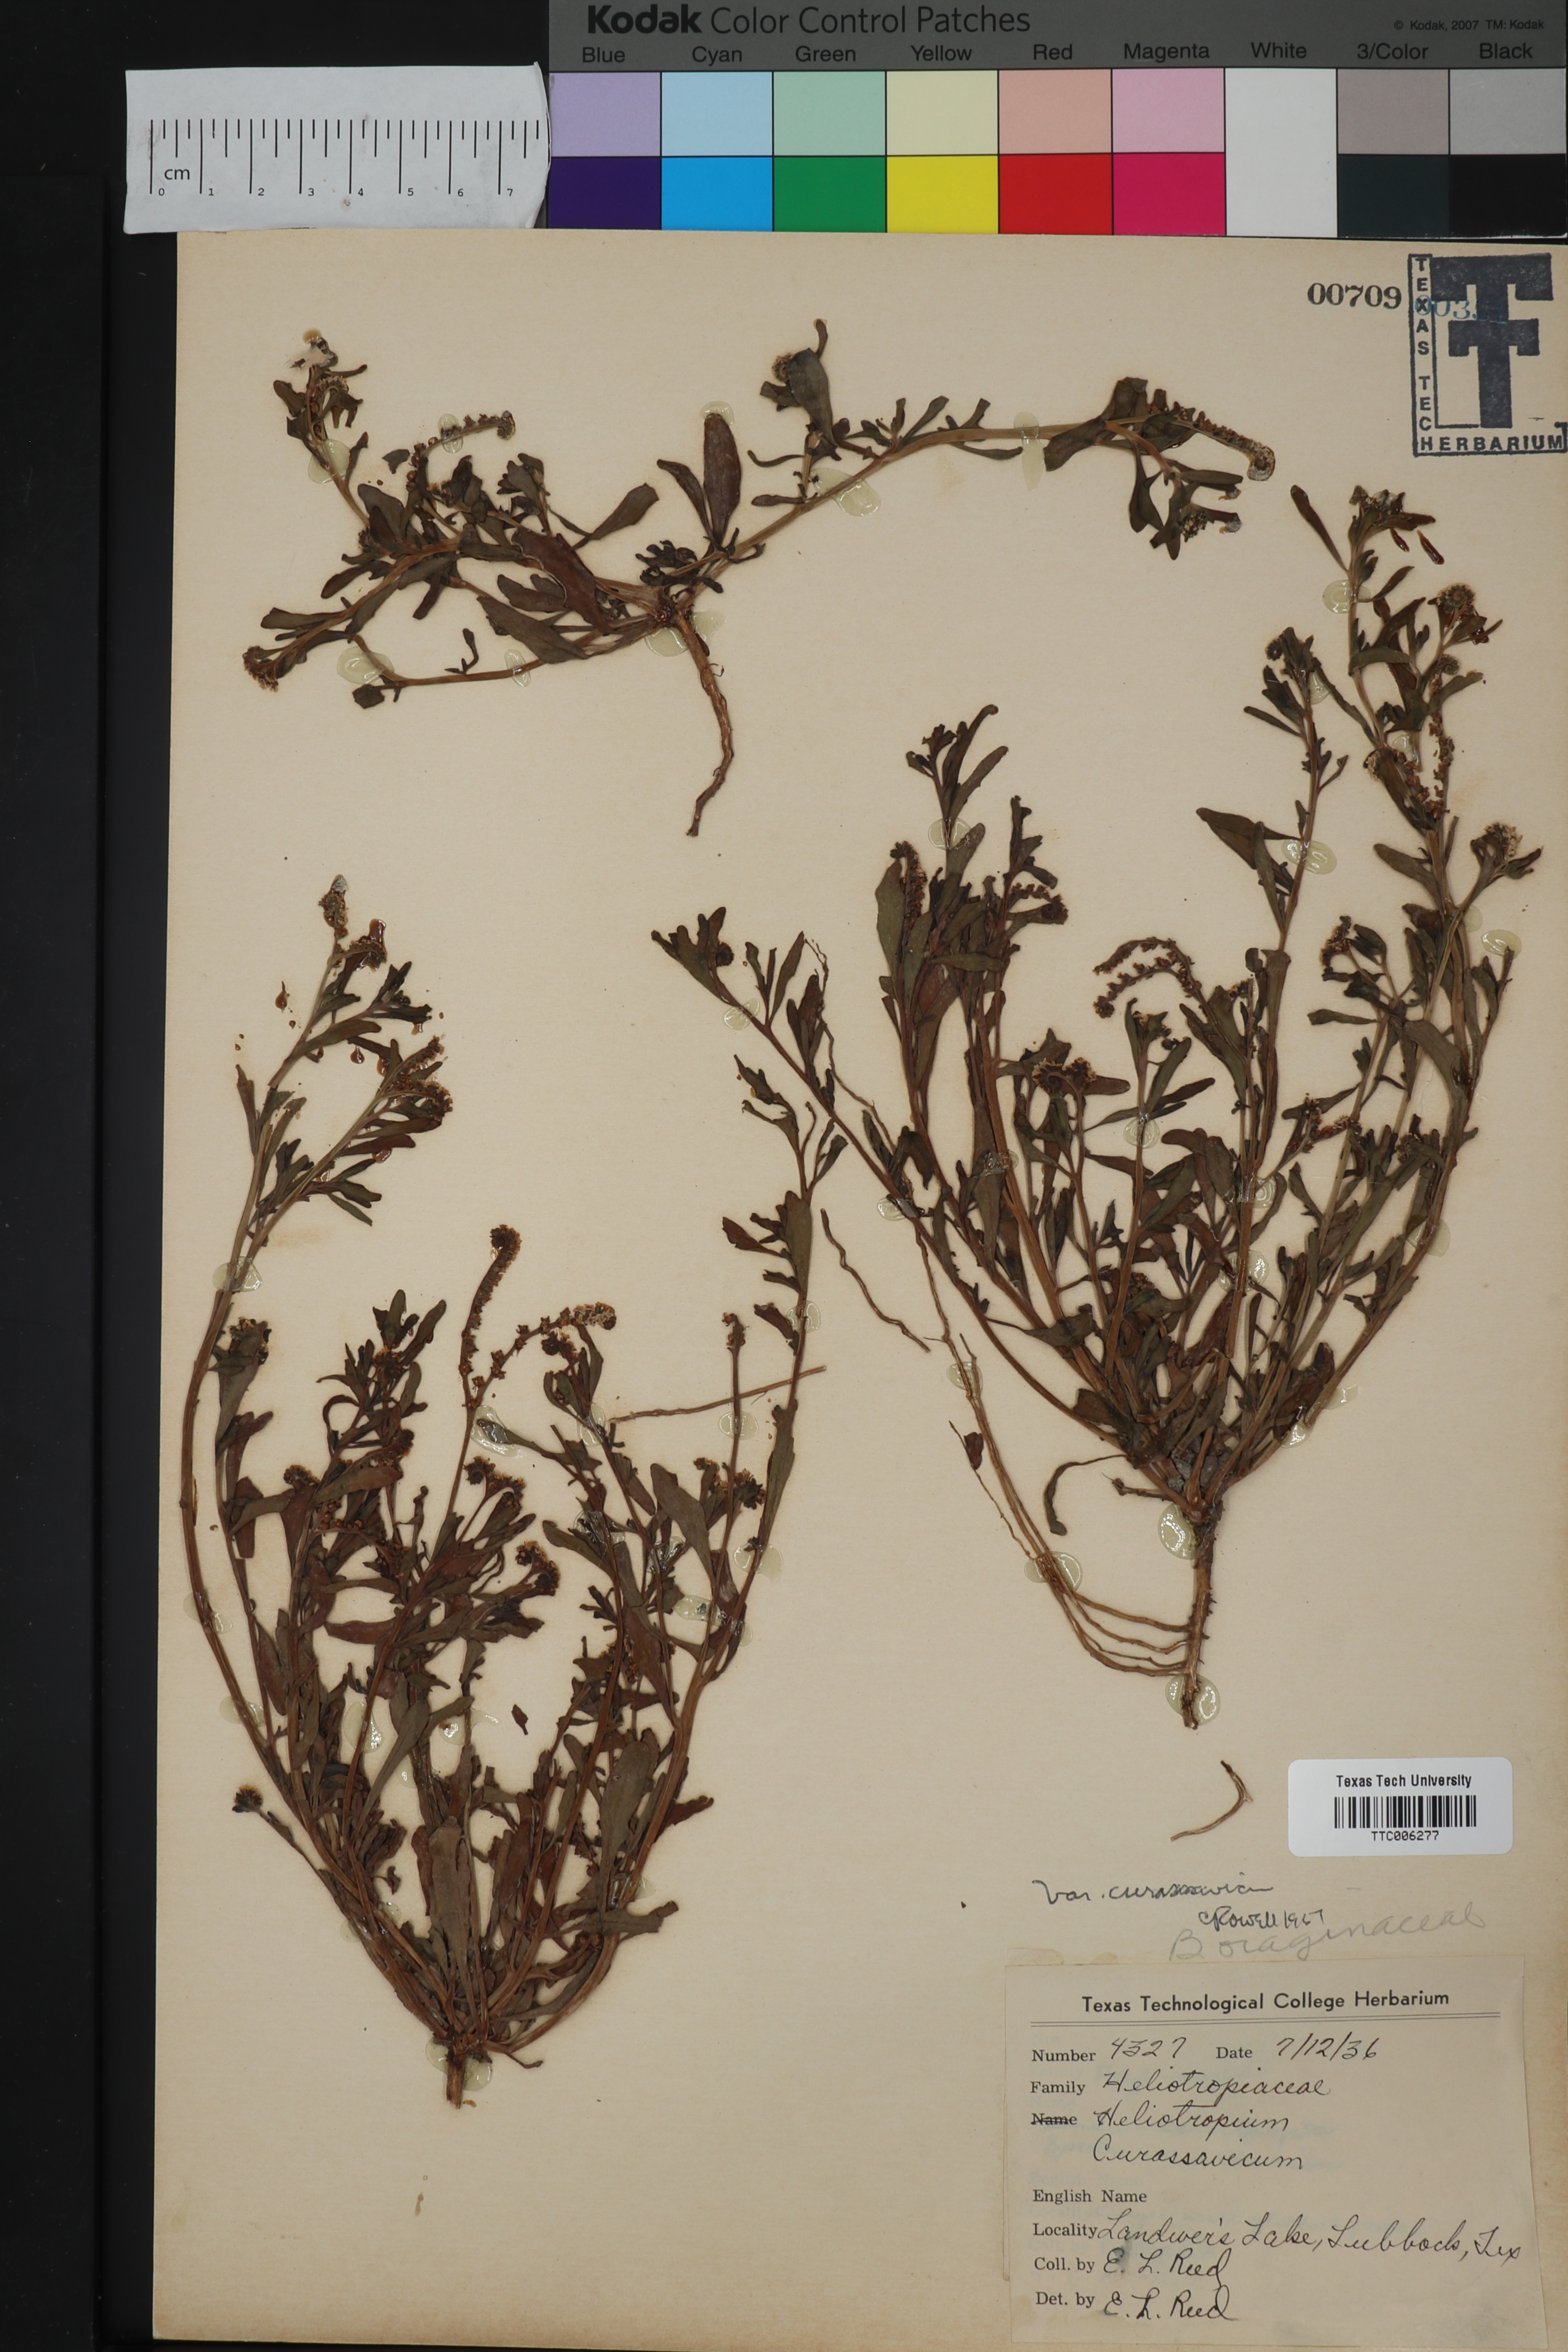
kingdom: Plantae
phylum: Tracheophyta
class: Magnoliopsida
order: Boraginales
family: Heliotropiaceae
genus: Heliotropium
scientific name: Heliotropium curassavicum
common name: Seaside heliotrope
